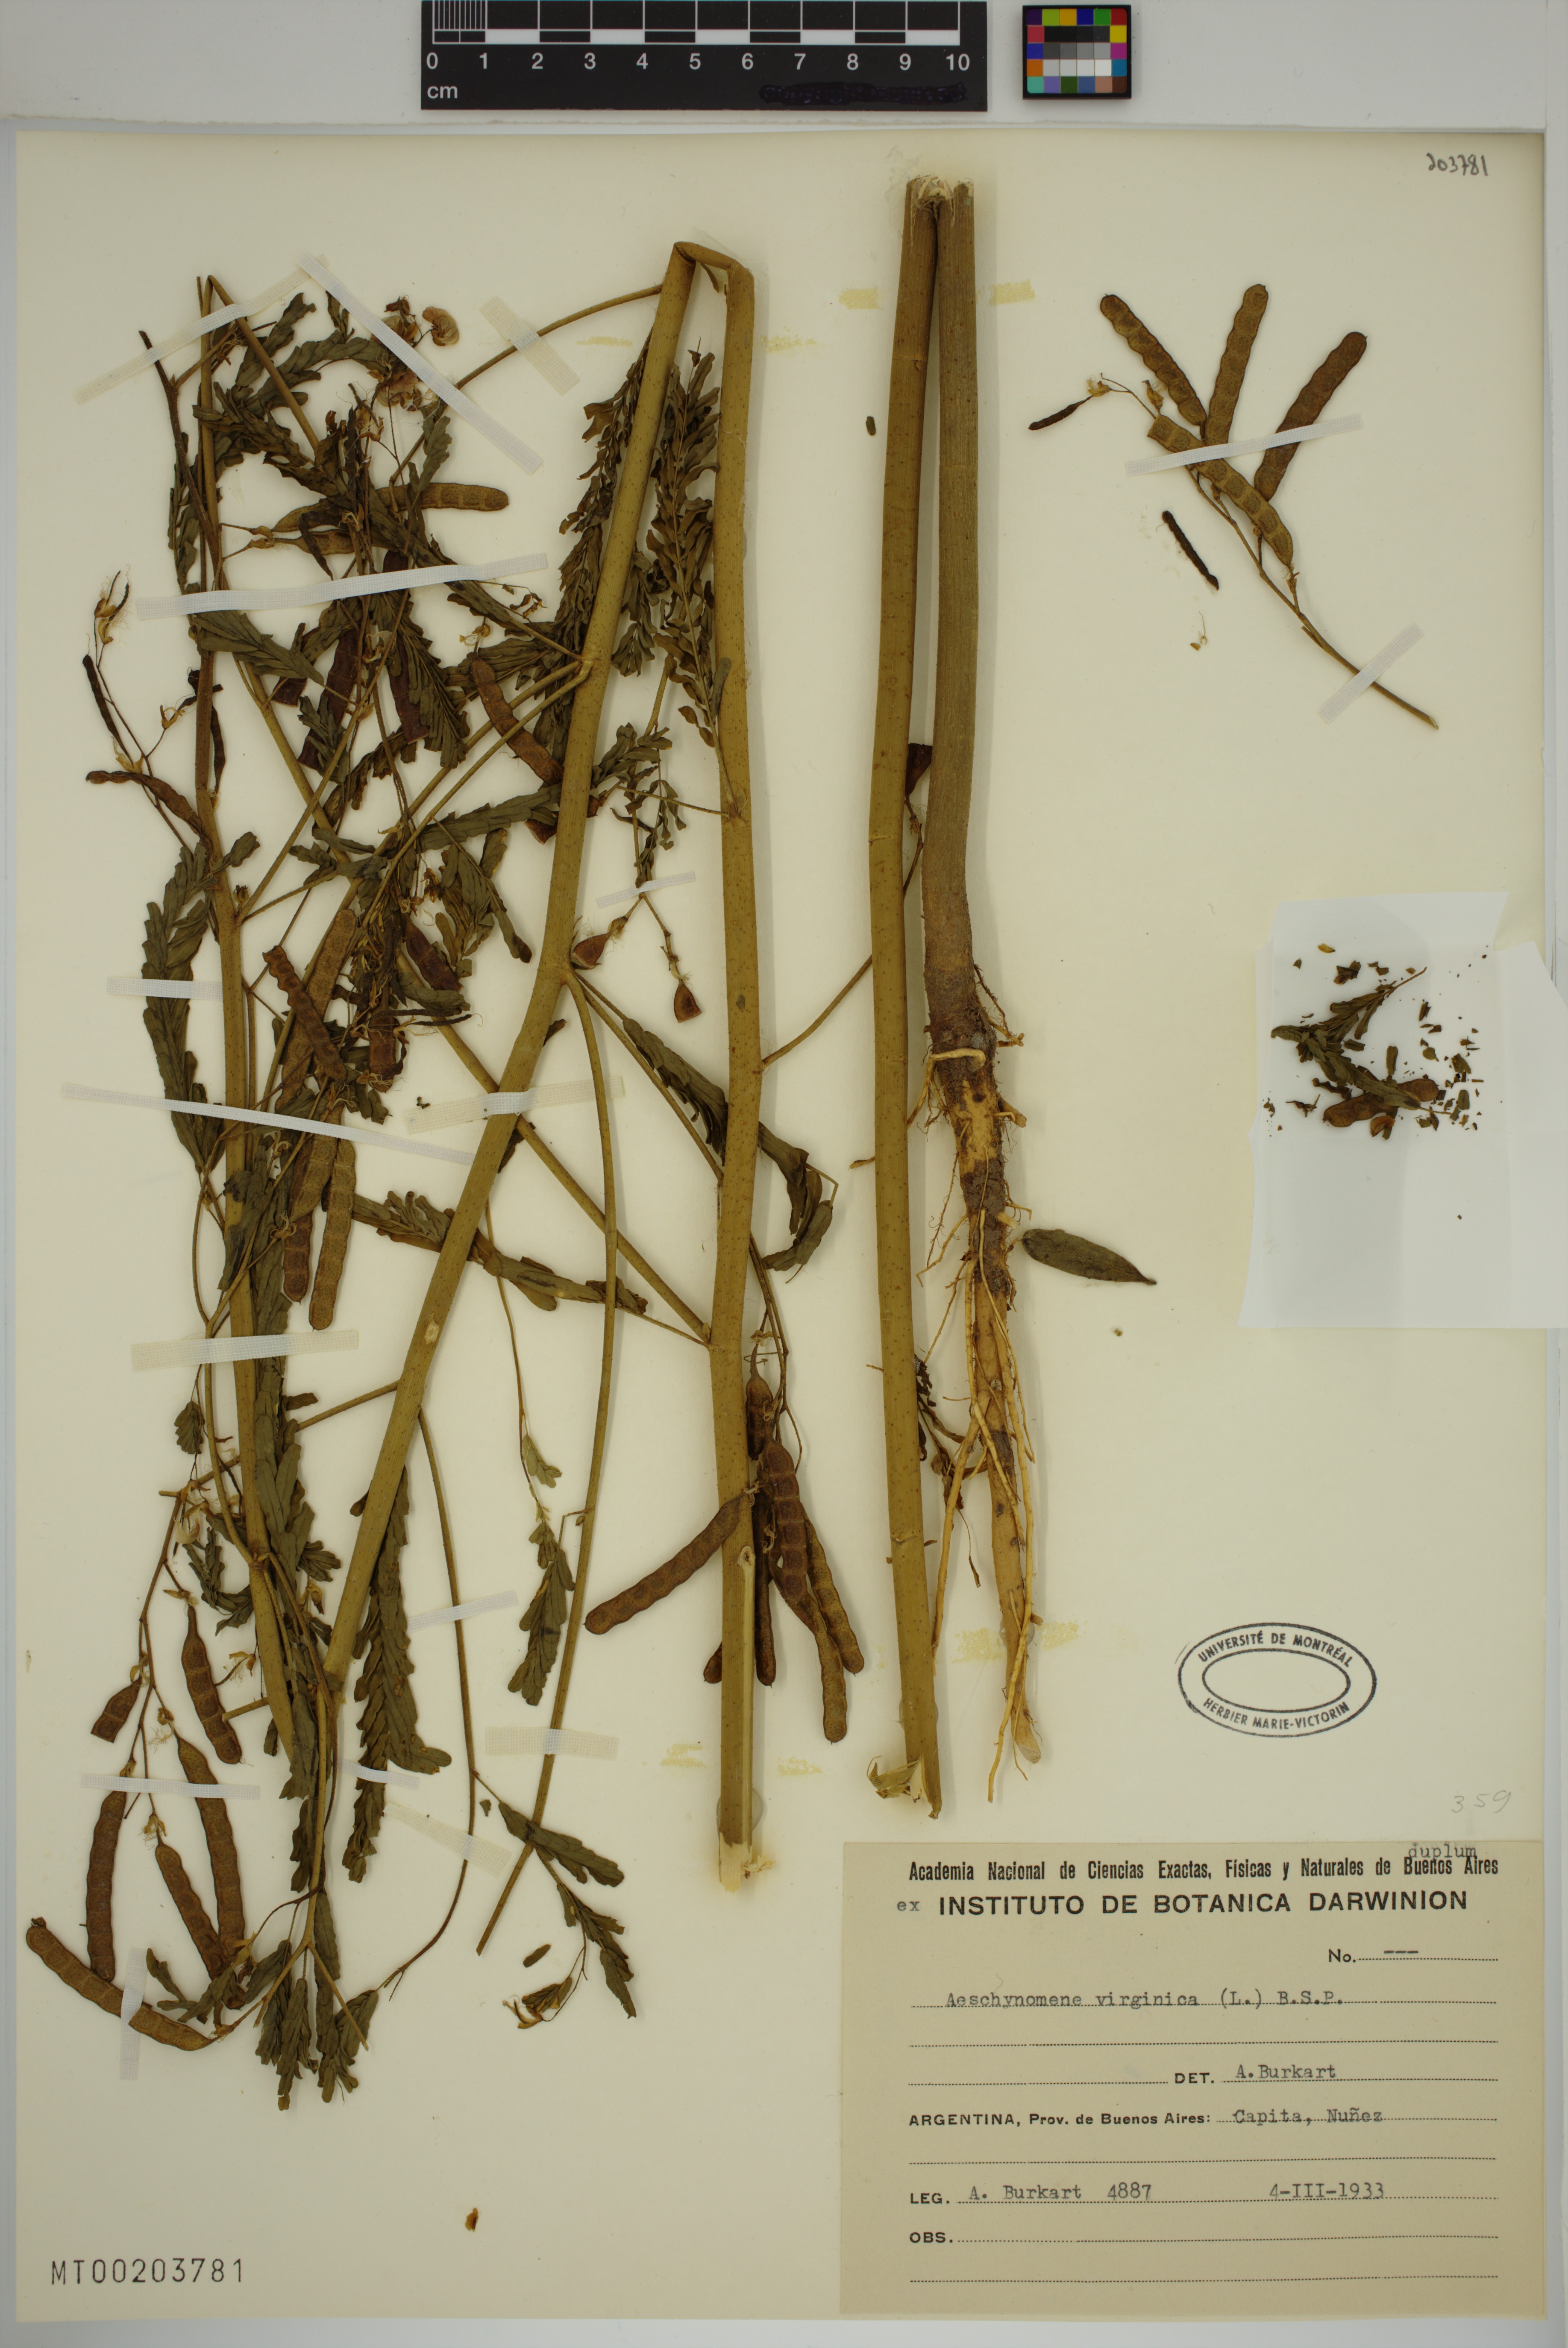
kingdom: Plantae
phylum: Tracheophyta
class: Magnoliopsida
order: Fabales
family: Fabaceae
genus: Aeschynomene
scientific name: Aeschynomene virginica
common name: Sensitive joint-vetch
